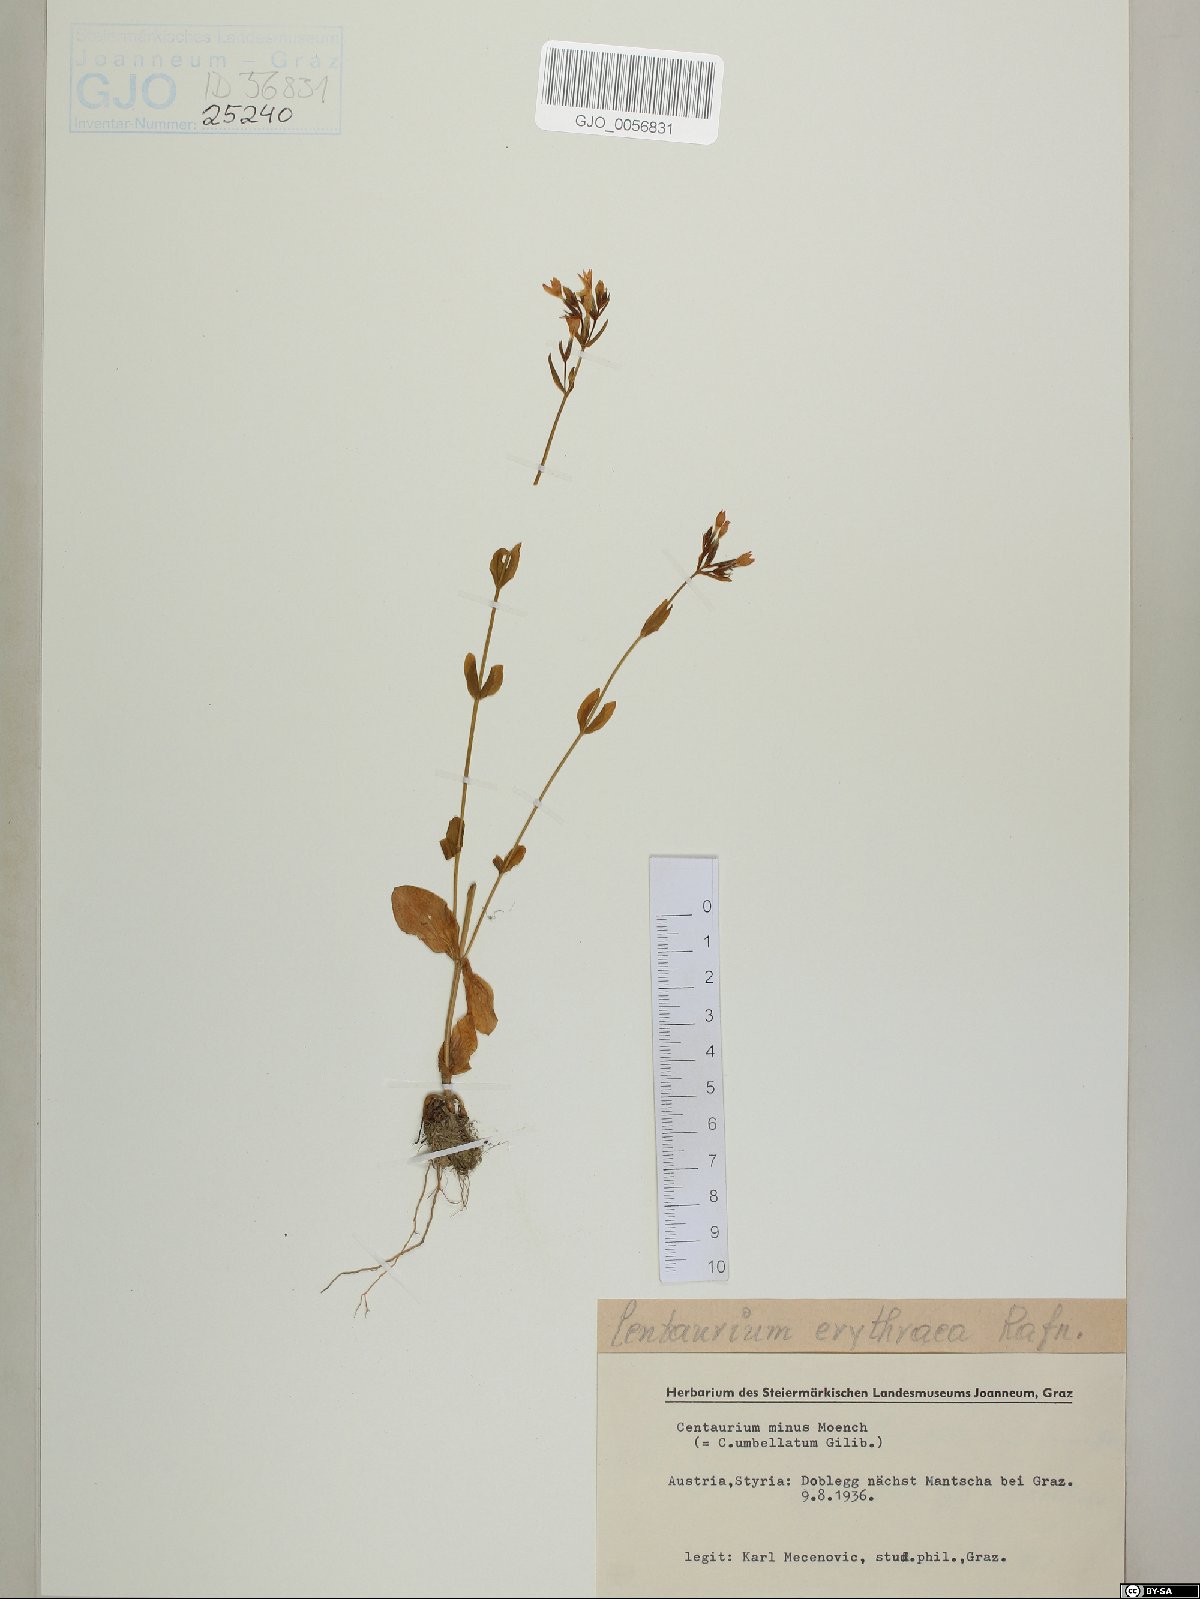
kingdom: Plantae
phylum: Tracheophyta
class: Magnoliopsida
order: Gentianales
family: Gentianaceae
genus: Centaurium
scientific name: Centaurium erythraea
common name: Common centaury
